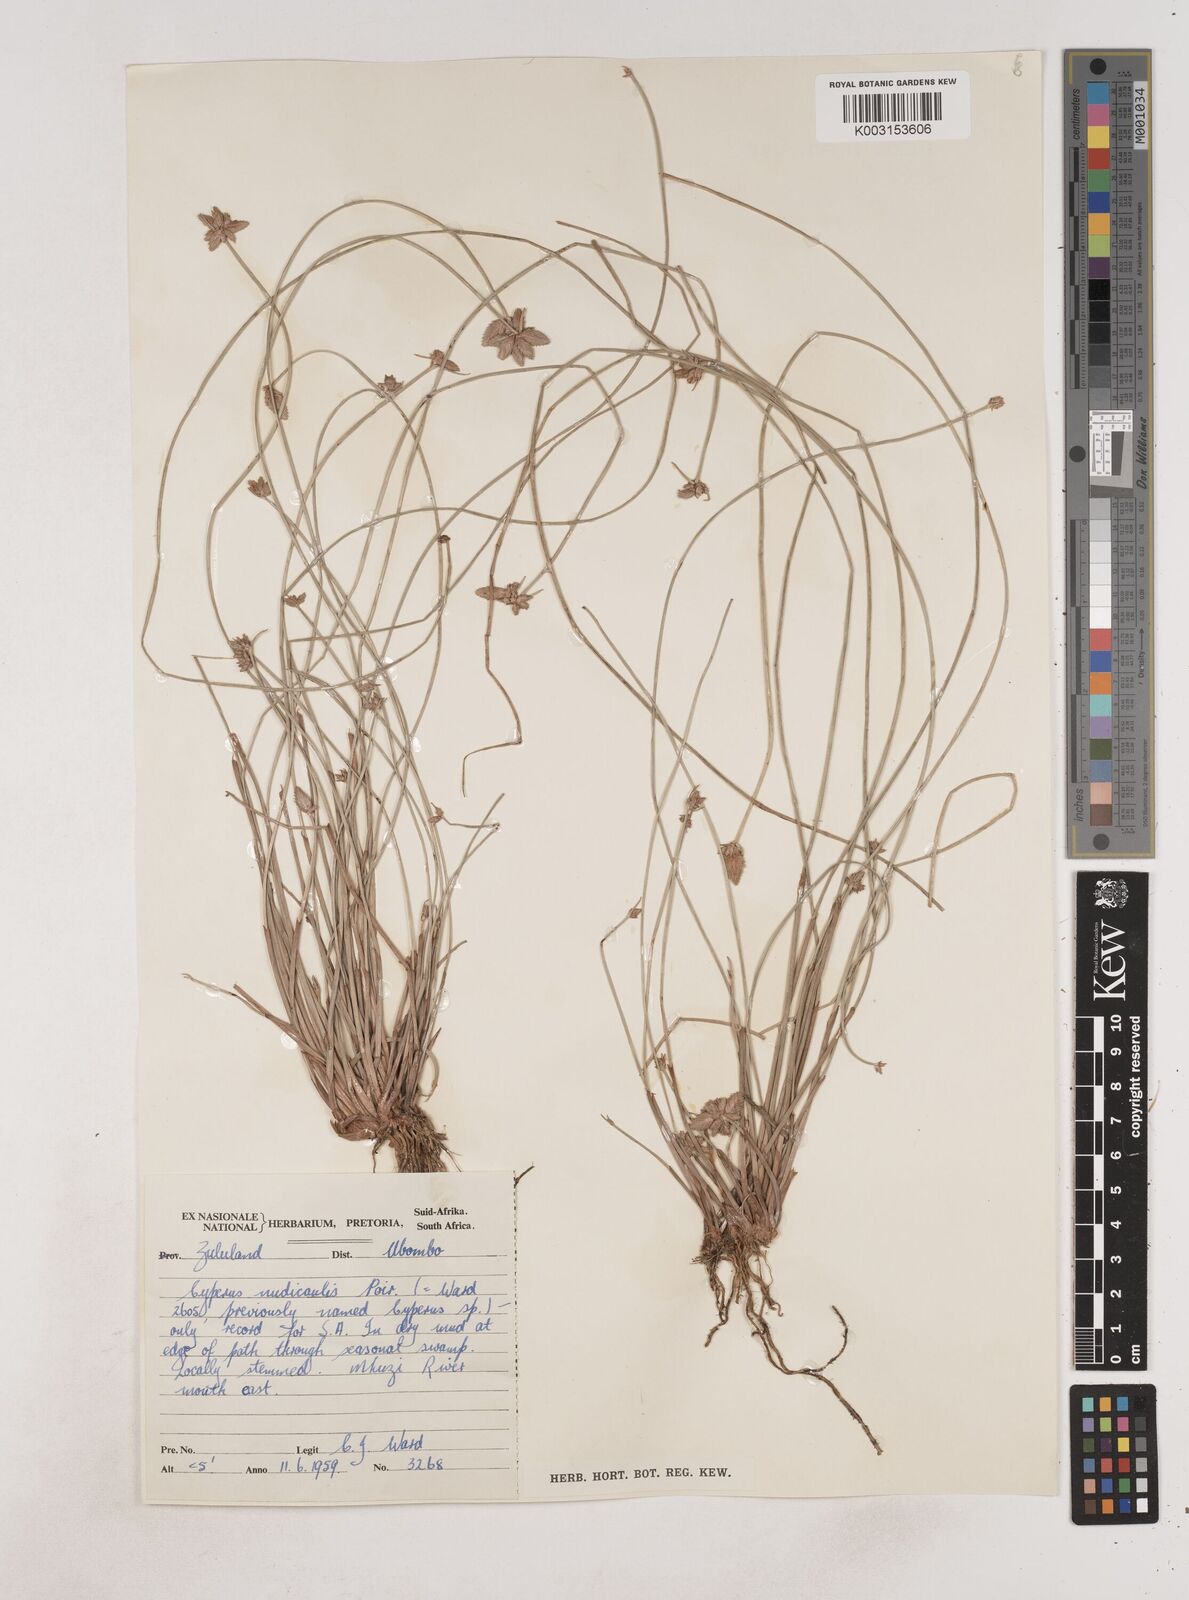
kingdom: Plantae
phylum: Tracheophyta
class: Liliopsida
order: Poales
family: Cyperaceae
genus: Cyperus
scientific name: Cyperus pectinatus
